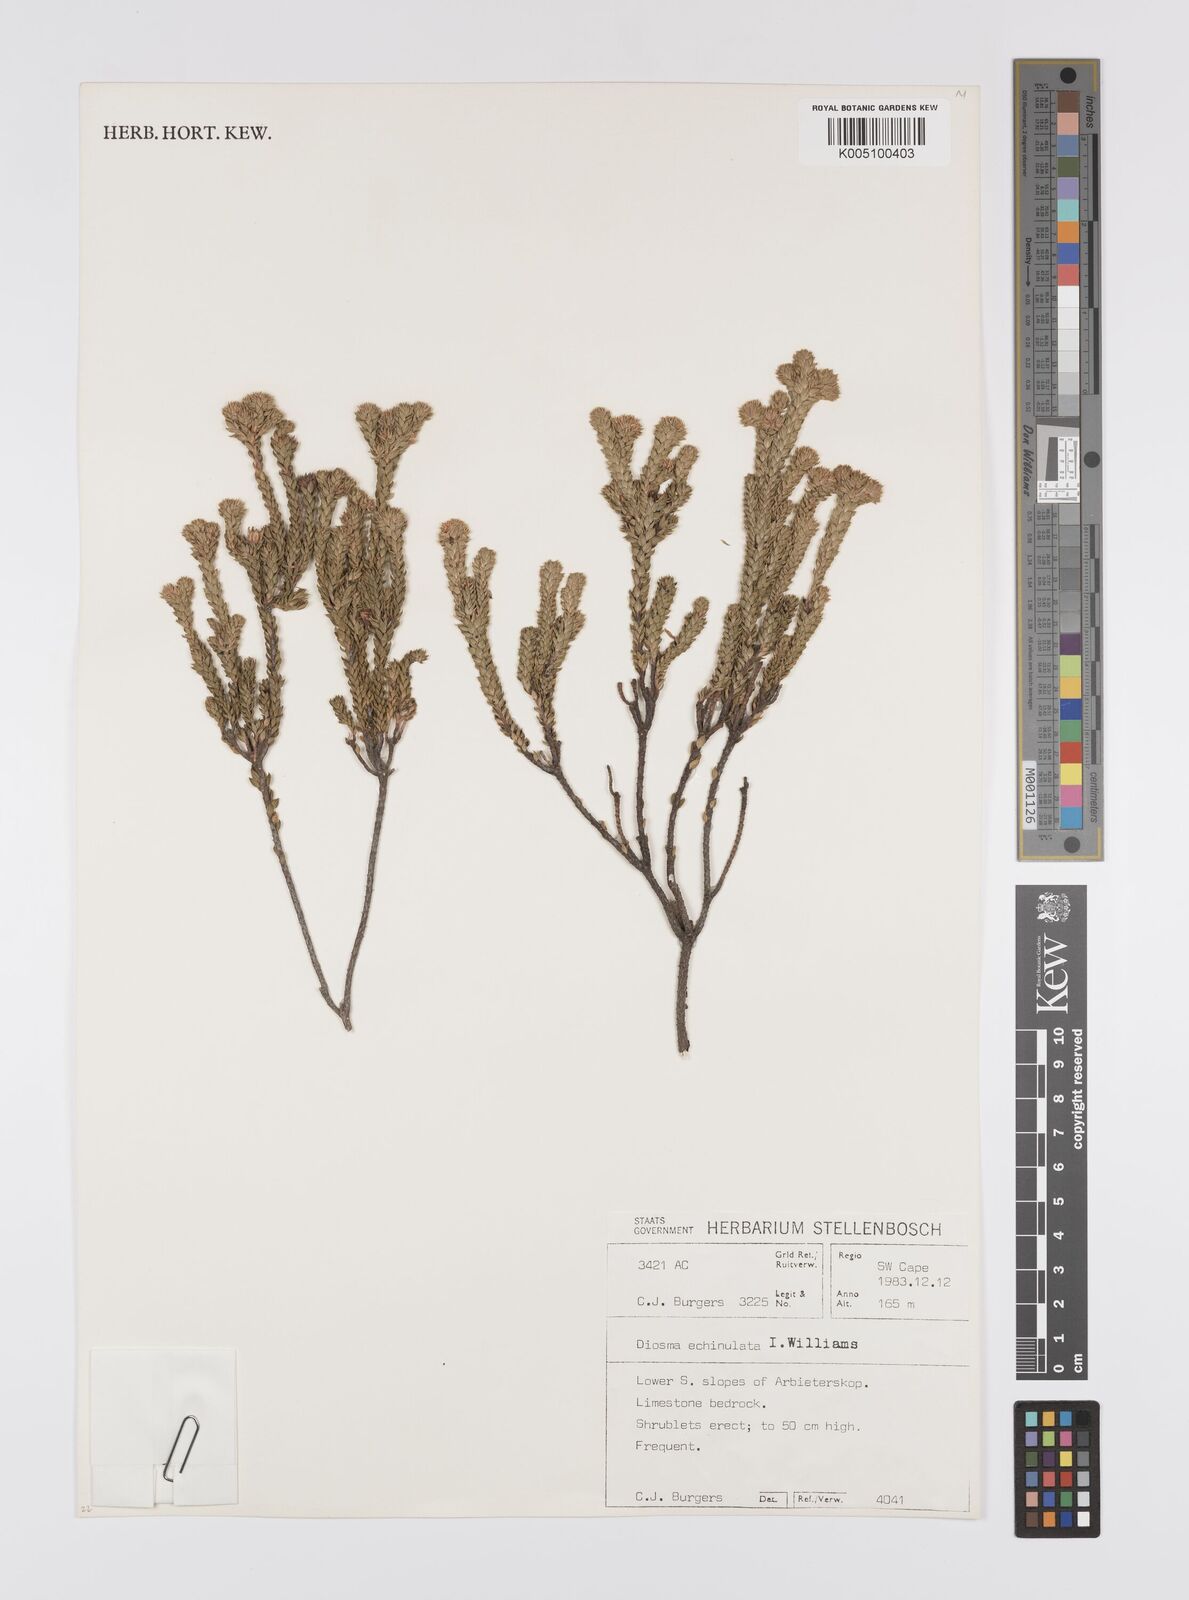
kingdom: Plantae
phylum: Tracheophyta
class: Magnoliopsida
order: Sapindales
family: Rutaceae
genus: Diosma
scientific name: Diosma echinulata
